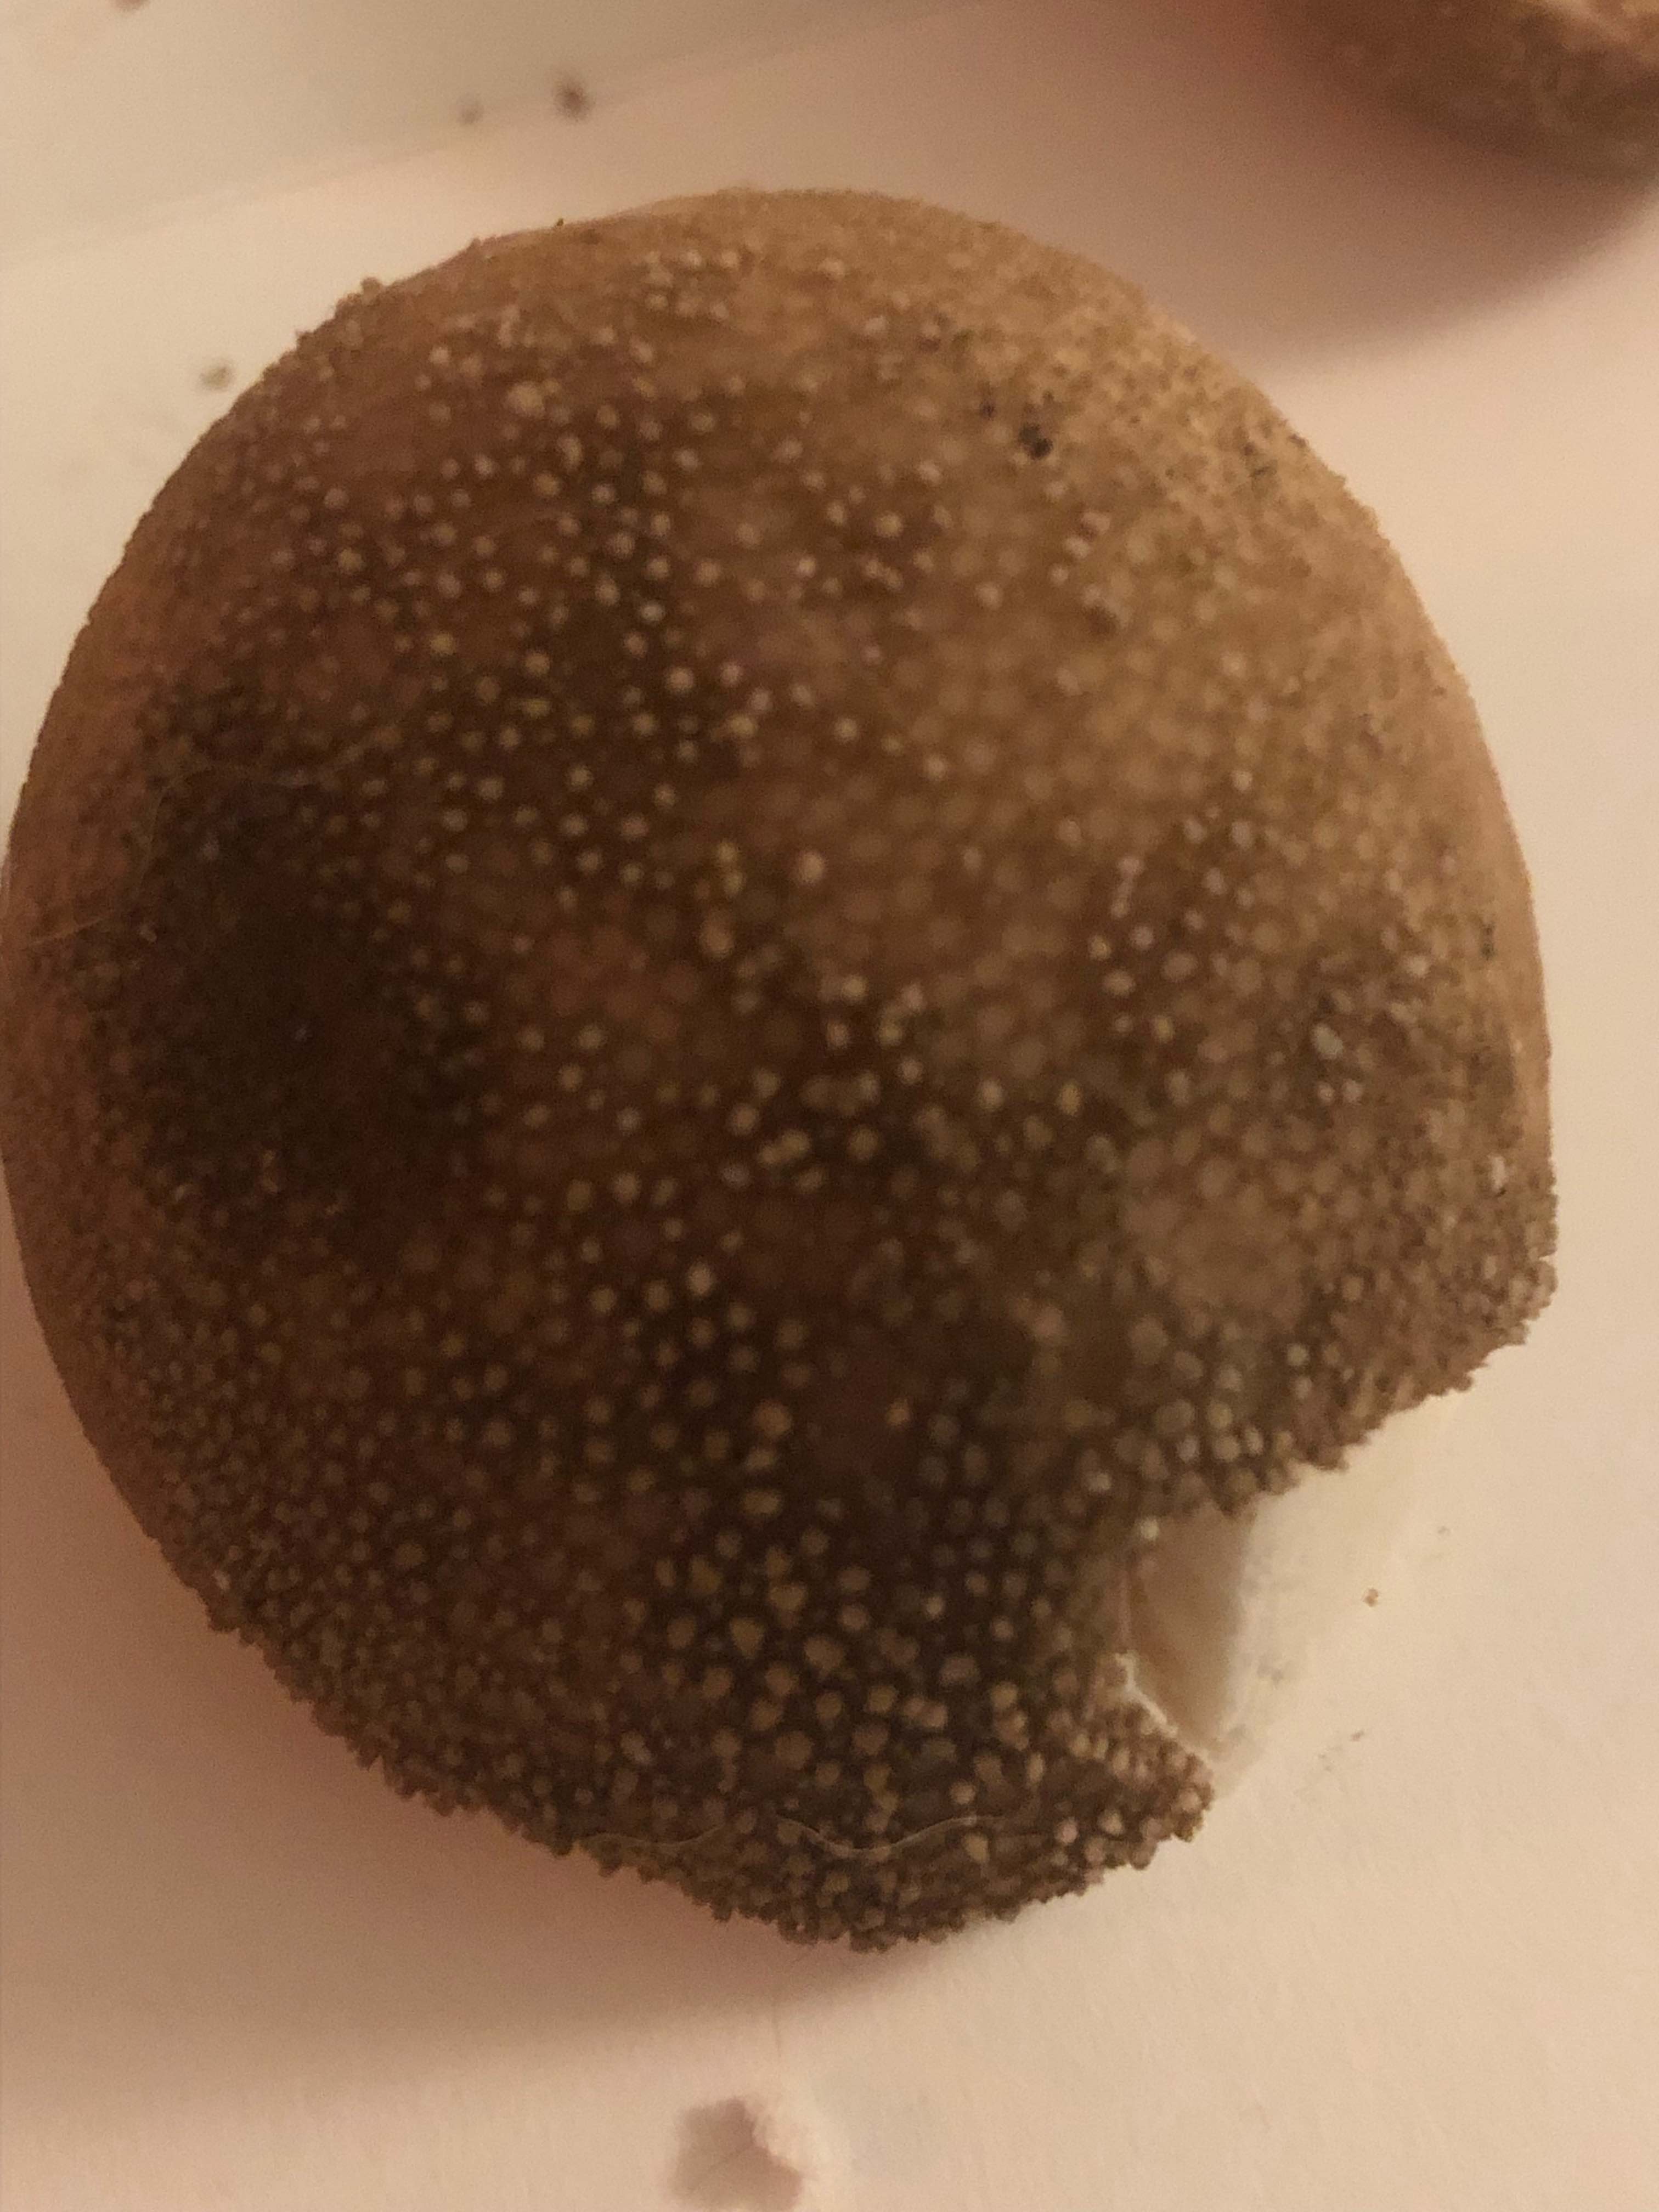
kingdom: Fungi
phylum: Basidiomycota
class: Agaricomycetes
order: Agaricales
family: Lycoperdaceae
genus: Lycoperdon
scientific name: Lycoperdon excipuliforme
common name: højstokket støvbold
